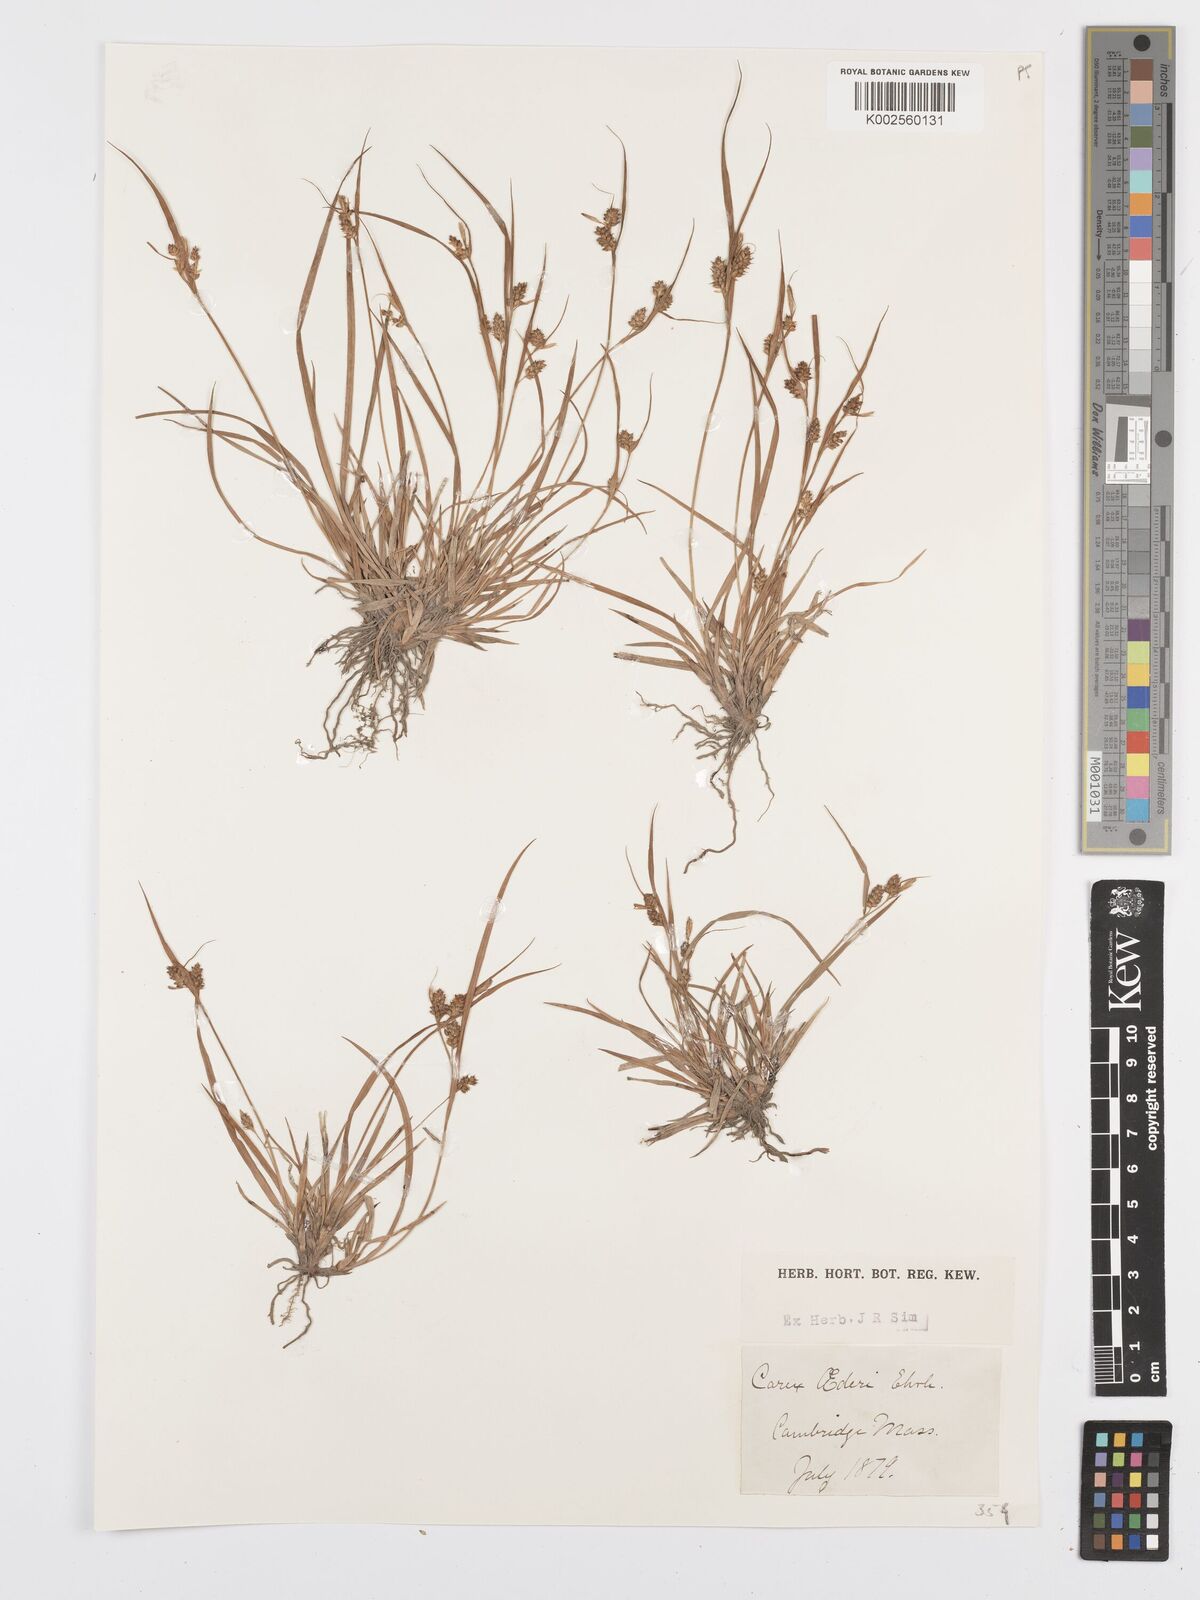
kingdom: Plantae
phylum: Tracheophyta
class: Liliopsida
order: Poales
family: Cyperaceae
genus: Carex
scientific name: Carex oederi
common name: Common & small-fruited yellow-sedge
